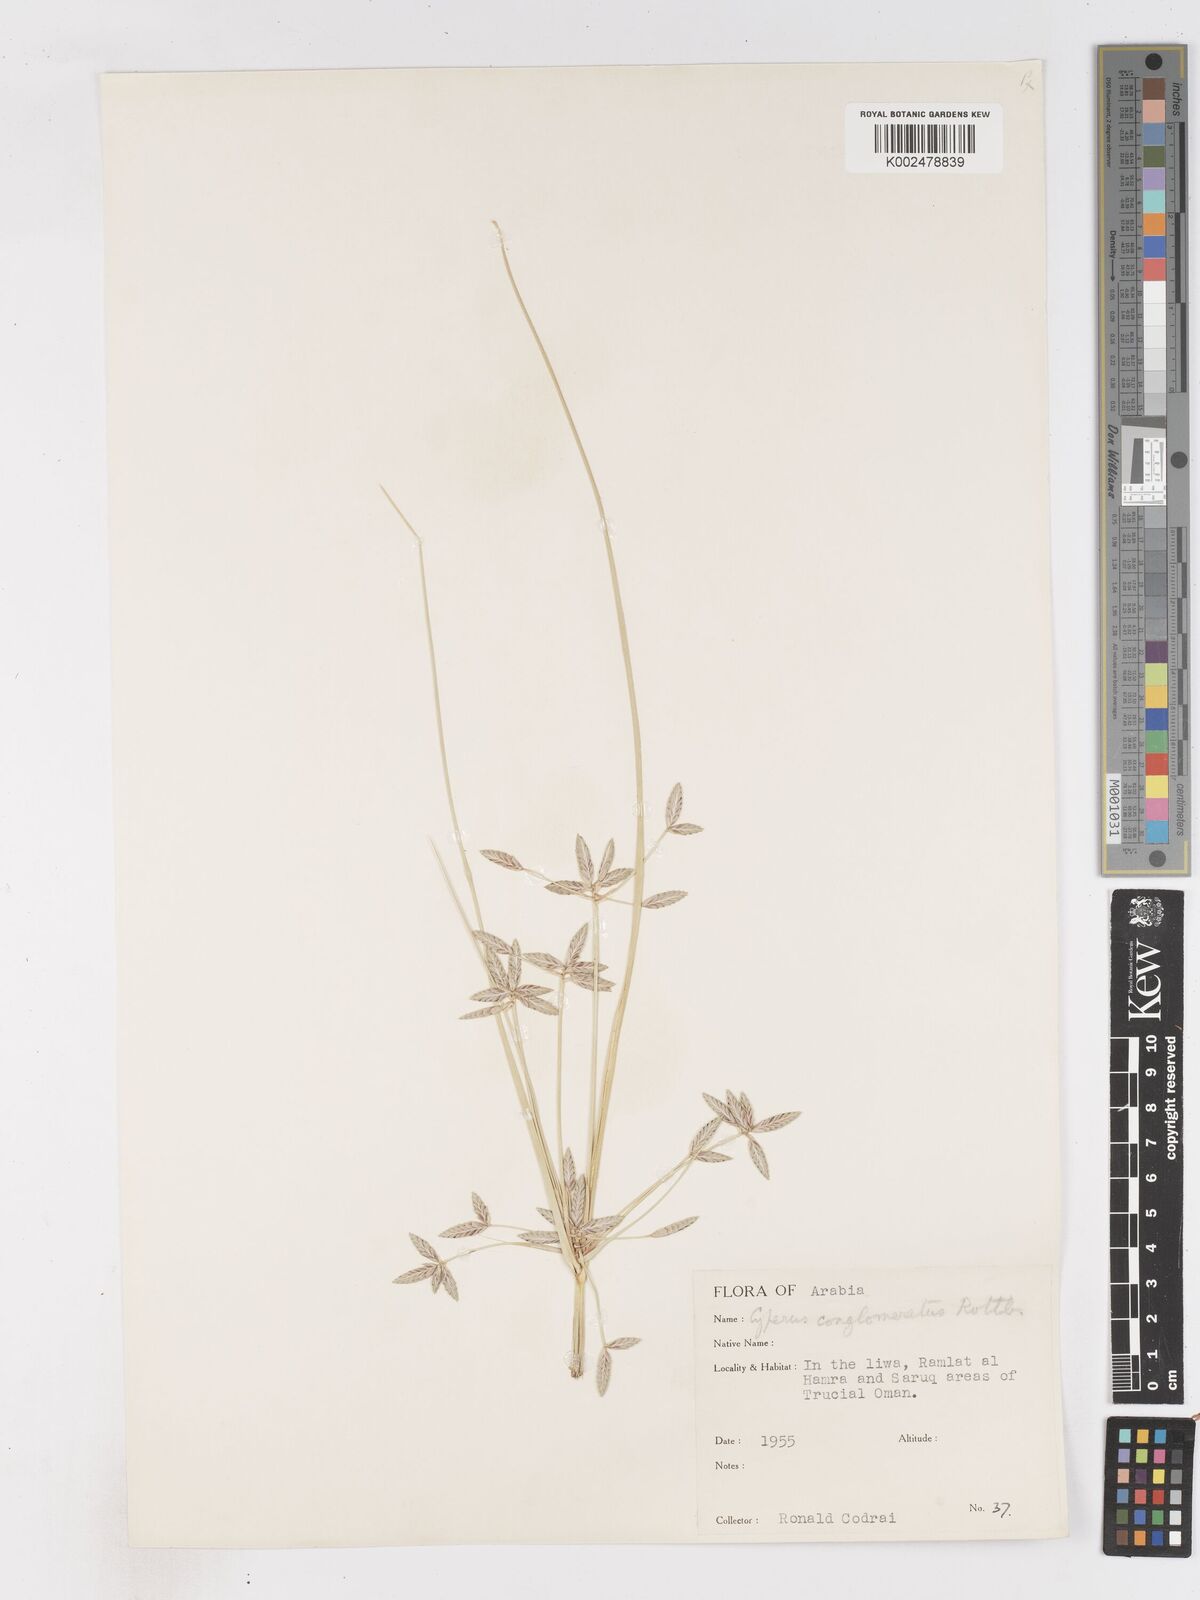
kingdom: Plantae
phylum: Tracheophyta
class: Liliopsida
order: Poales
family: Cyperaceae
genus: Cyperus
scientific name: Cyperus aucheri
